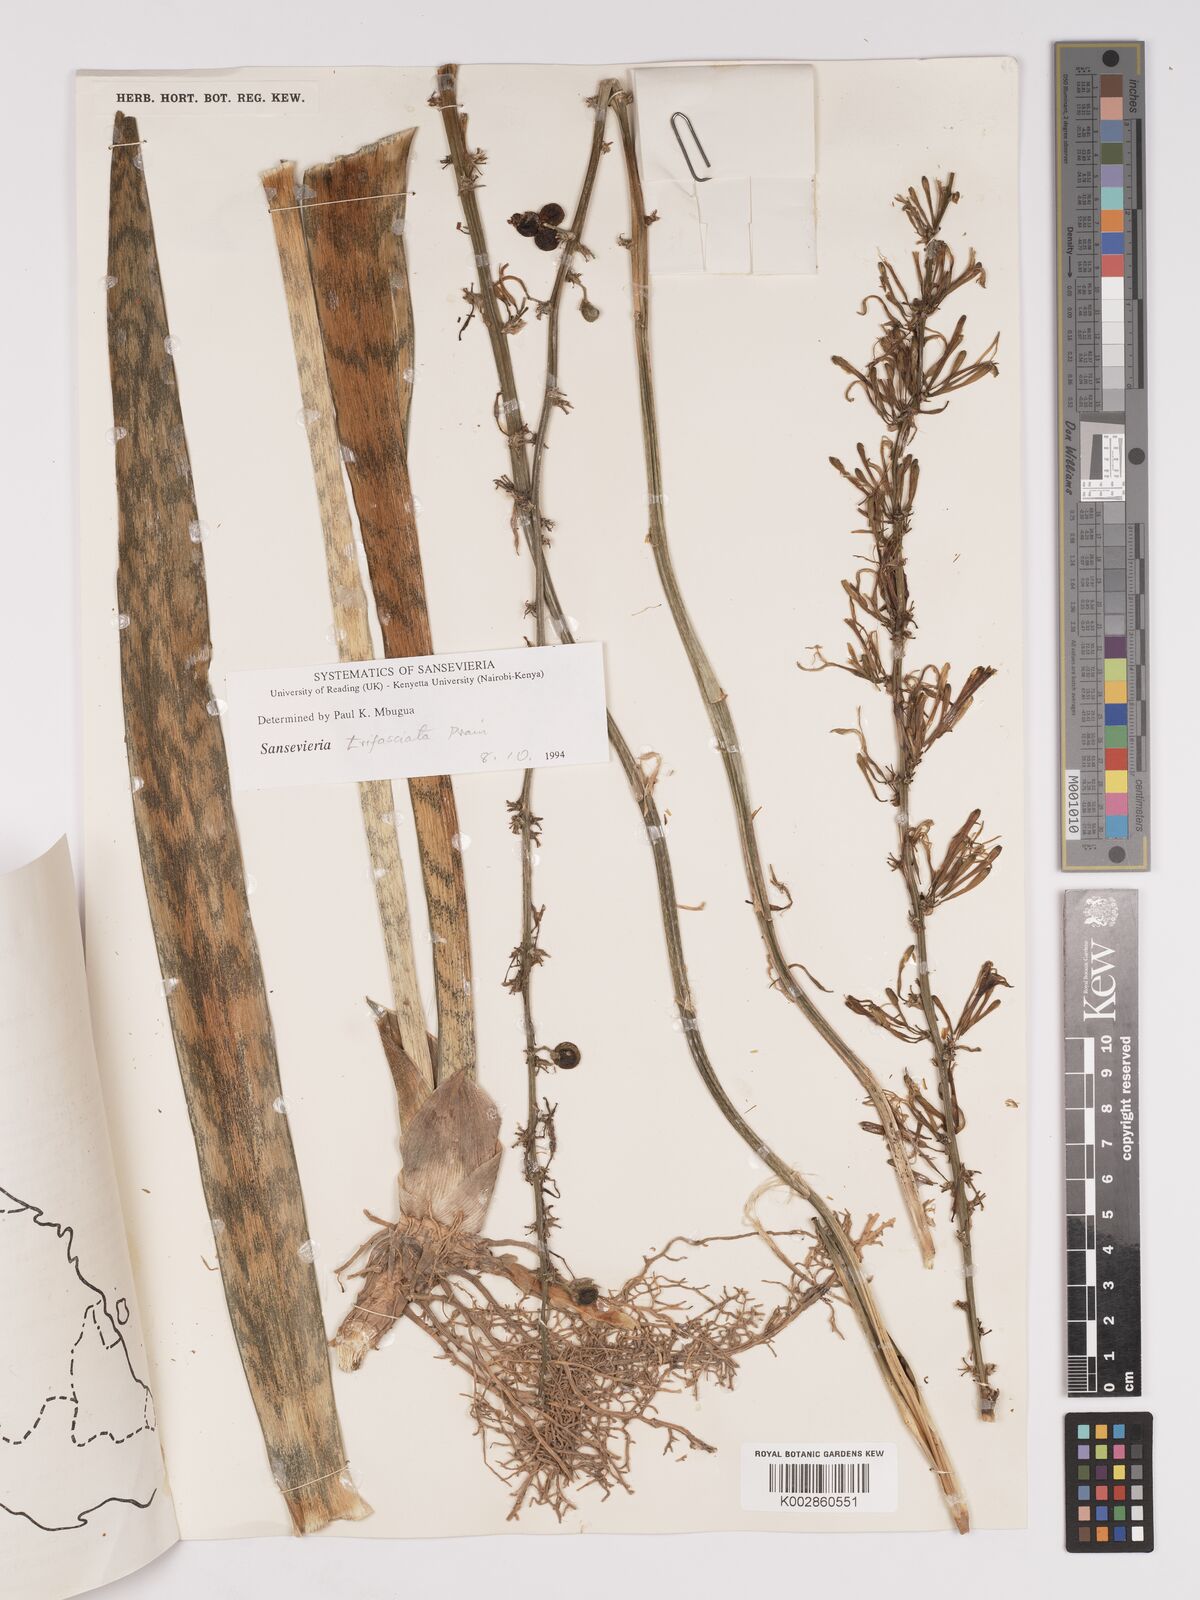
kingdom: Plantae
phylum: Tracheophyta
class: Liliopsida
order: Asparagales
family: Asparagaceae
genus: Dracaena
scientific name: Dracaena trifasciata
